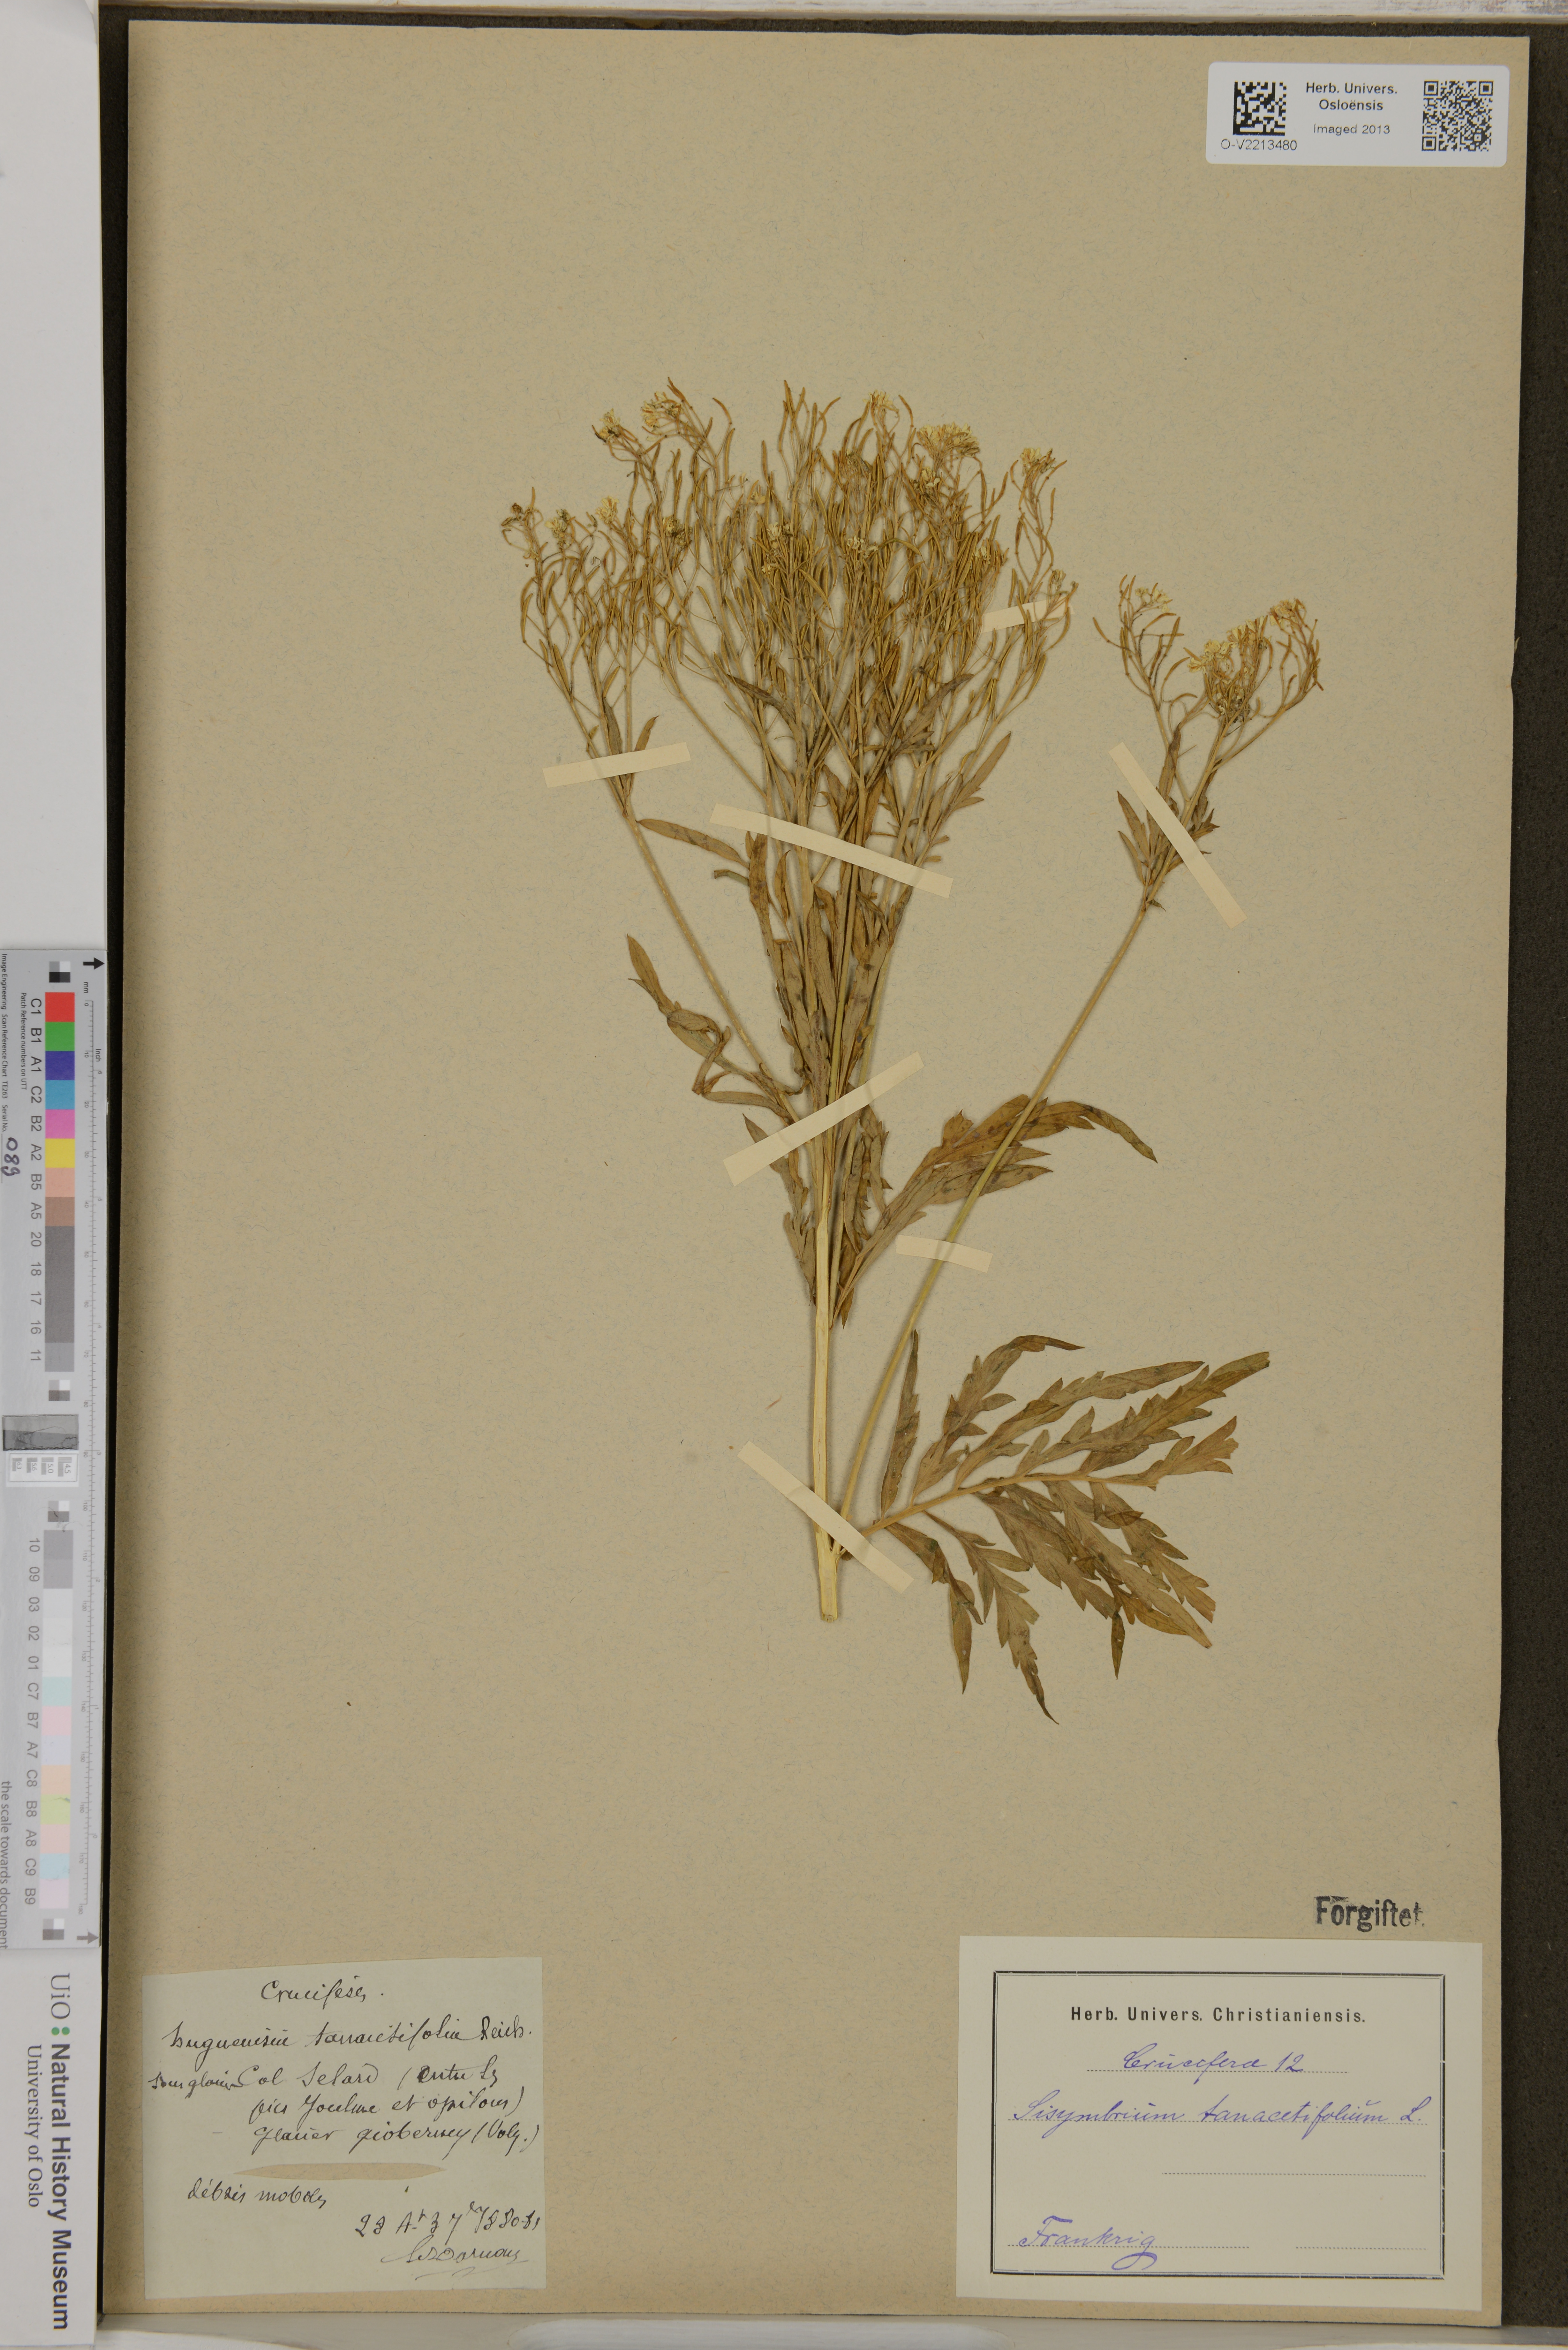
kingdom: Plantae
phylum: Tracheophyta
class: Magnoliopsida
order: Brassicales
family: Brassicaceae
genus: Descurainia
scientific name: Descurainia tanacetifolia
